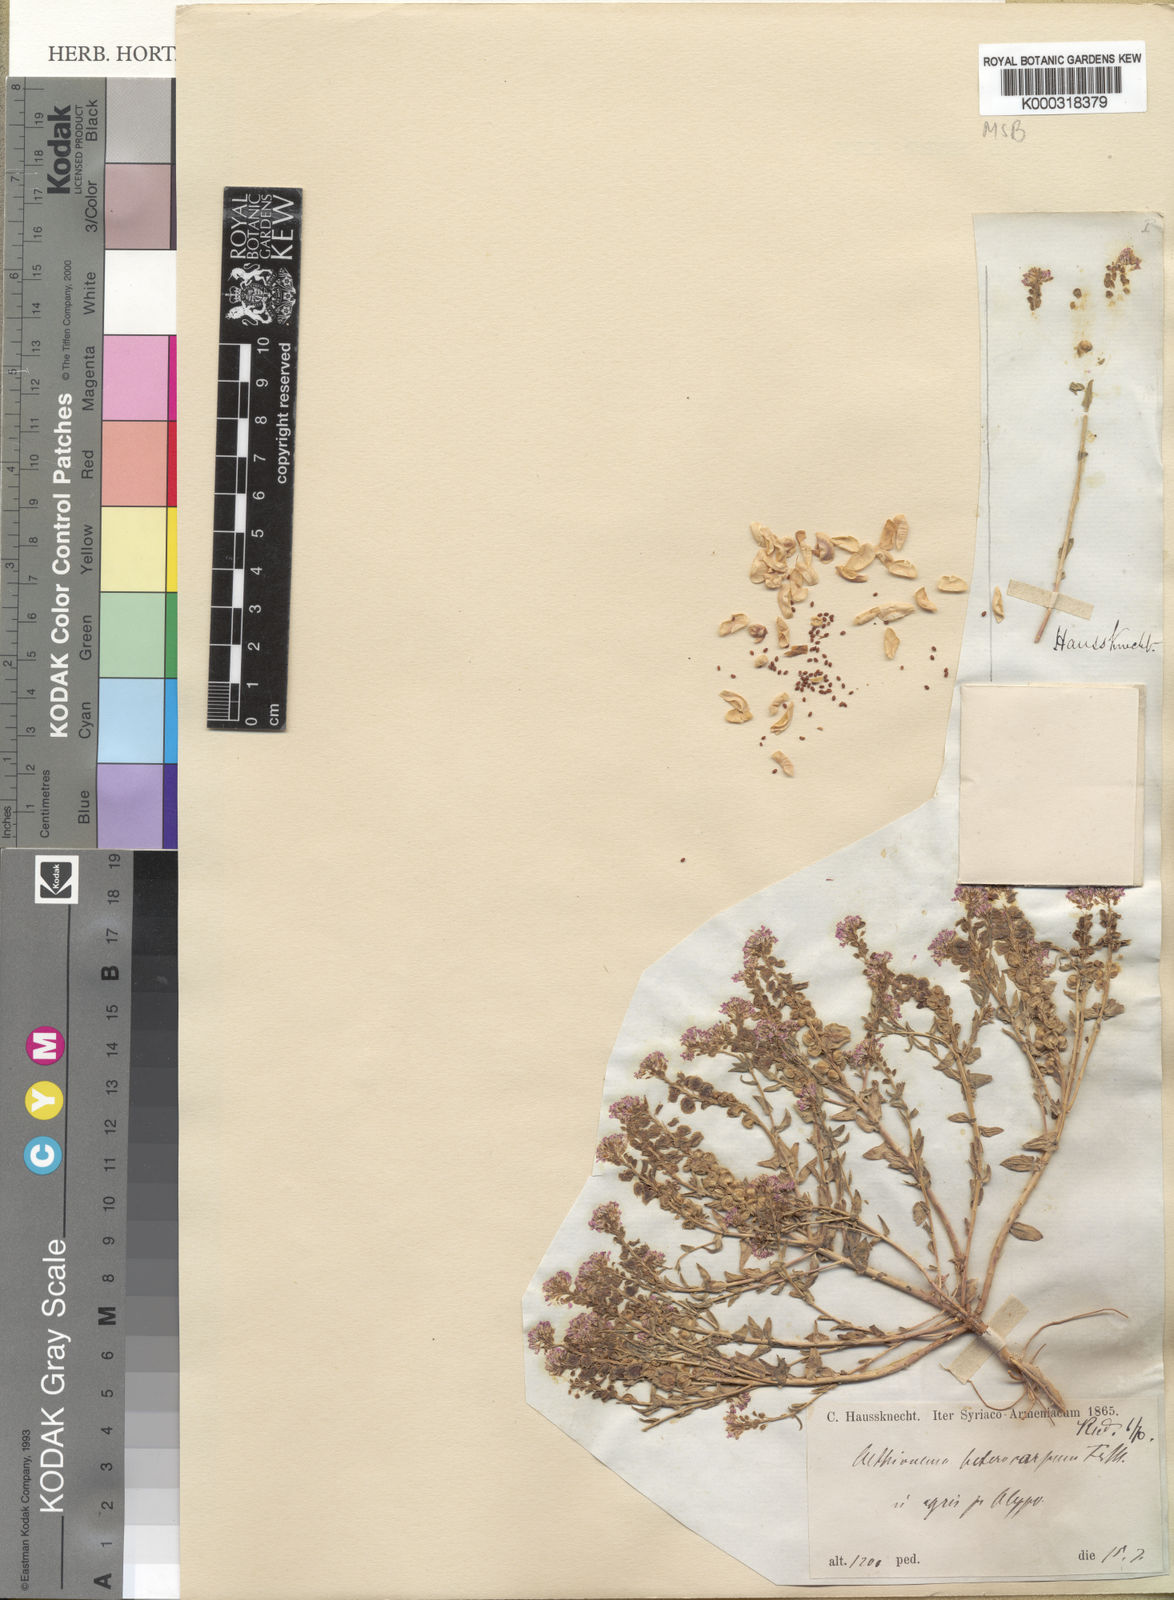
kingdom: Plantae
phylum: Tracheophyta
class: Magnoliopsida
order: Brassicales
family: Brassicaceae
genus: Aethionema
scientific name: Aethionema heterocarpum
